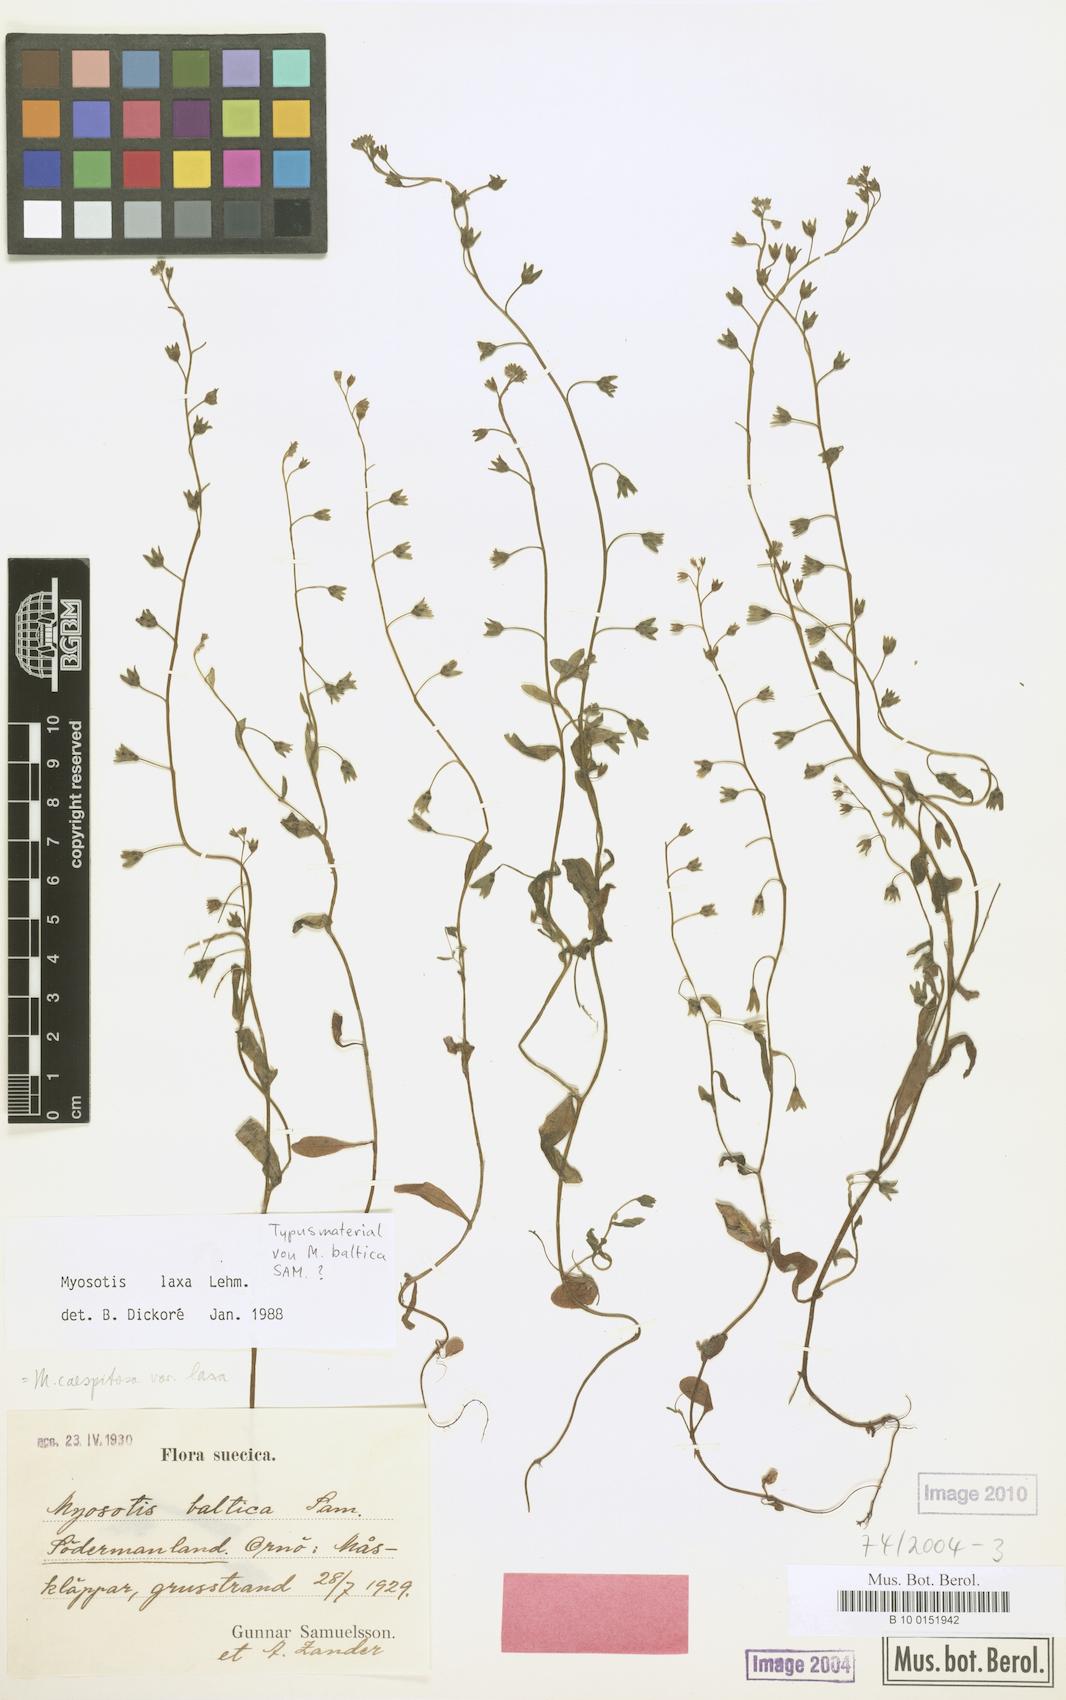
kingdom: Plantae
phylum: Tracheophyta
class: Magnoliopsida
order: Boraginales
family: Boraginaceae
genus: Myosotis
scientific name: Myosotis laxa
